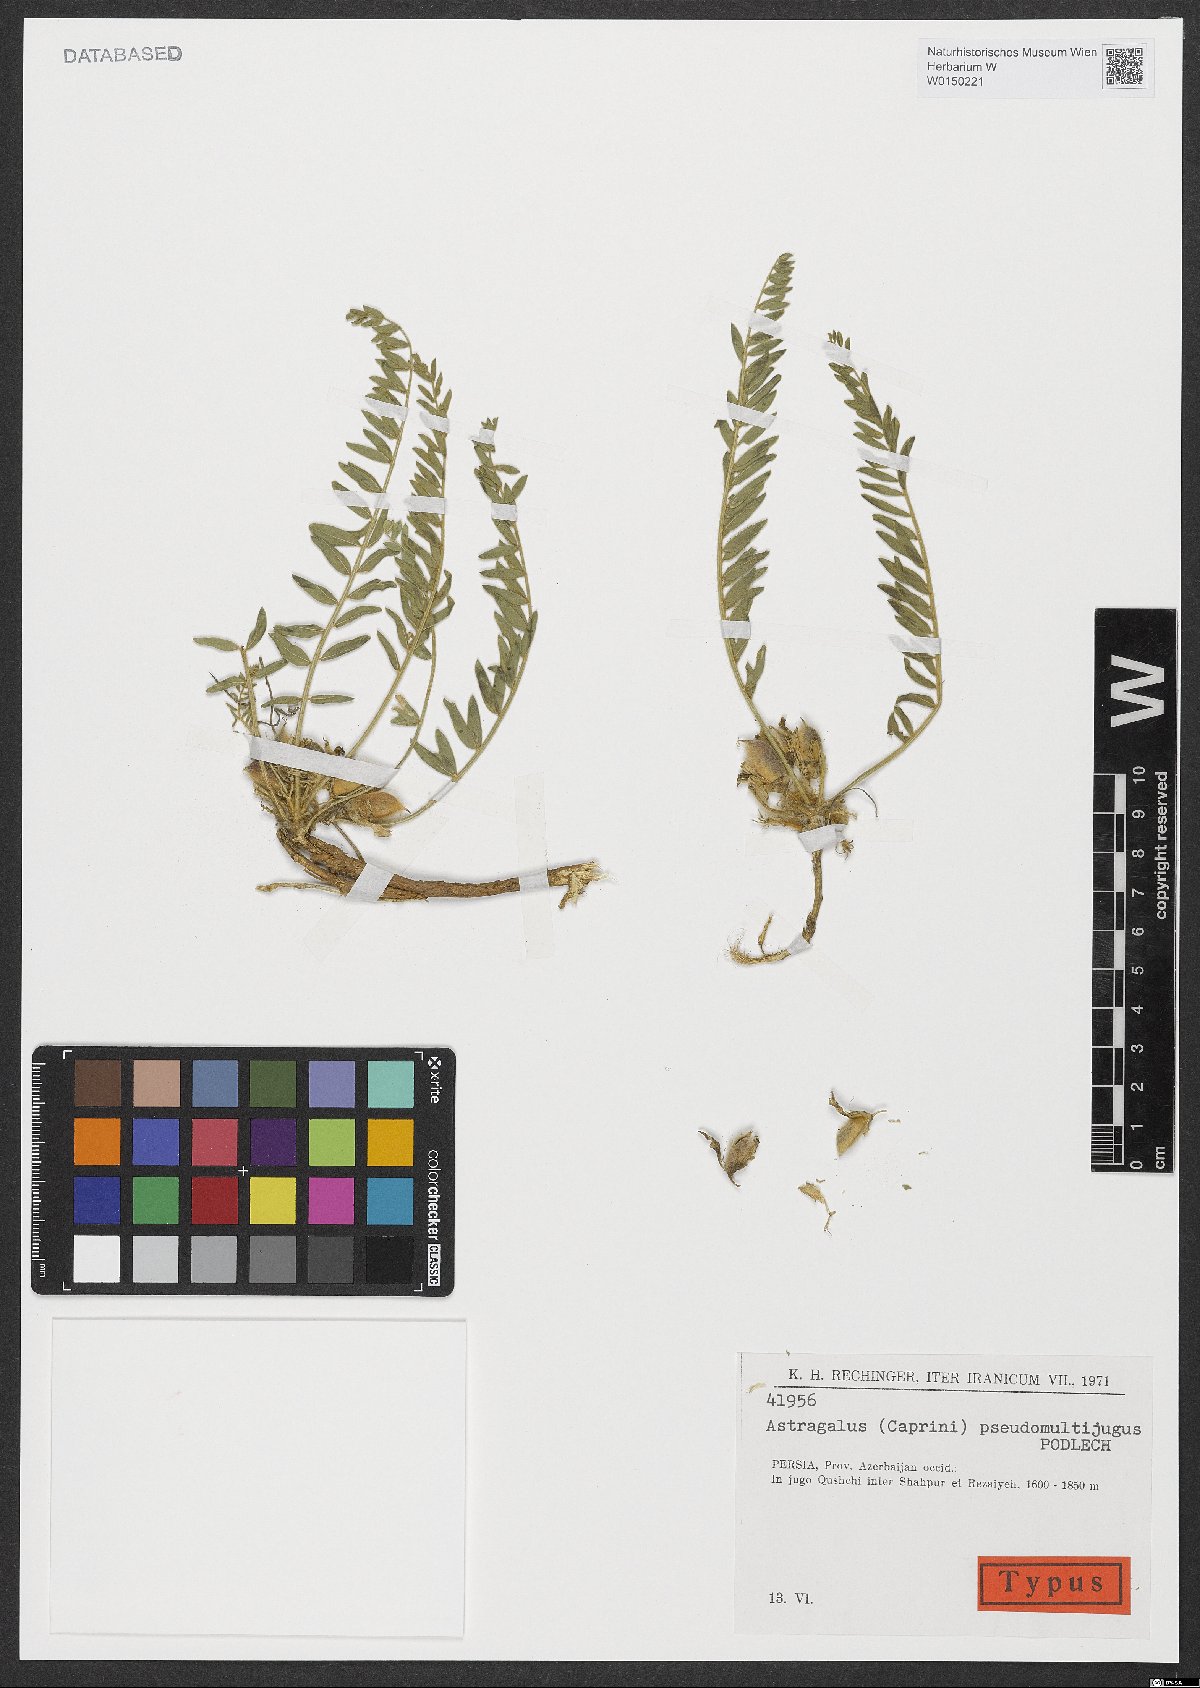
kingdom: Plantae
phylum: Tracheophyta
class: Magnoliopsida
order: Fabales
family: Fabaceae
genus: Astragalus
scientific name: Astragalus pseudomultijugus
